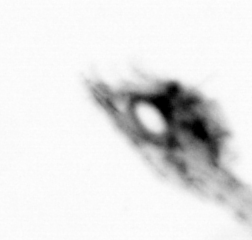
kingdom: Animalia
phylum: Arthropoda
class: Maxillopoda
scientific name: Maxillopoda
